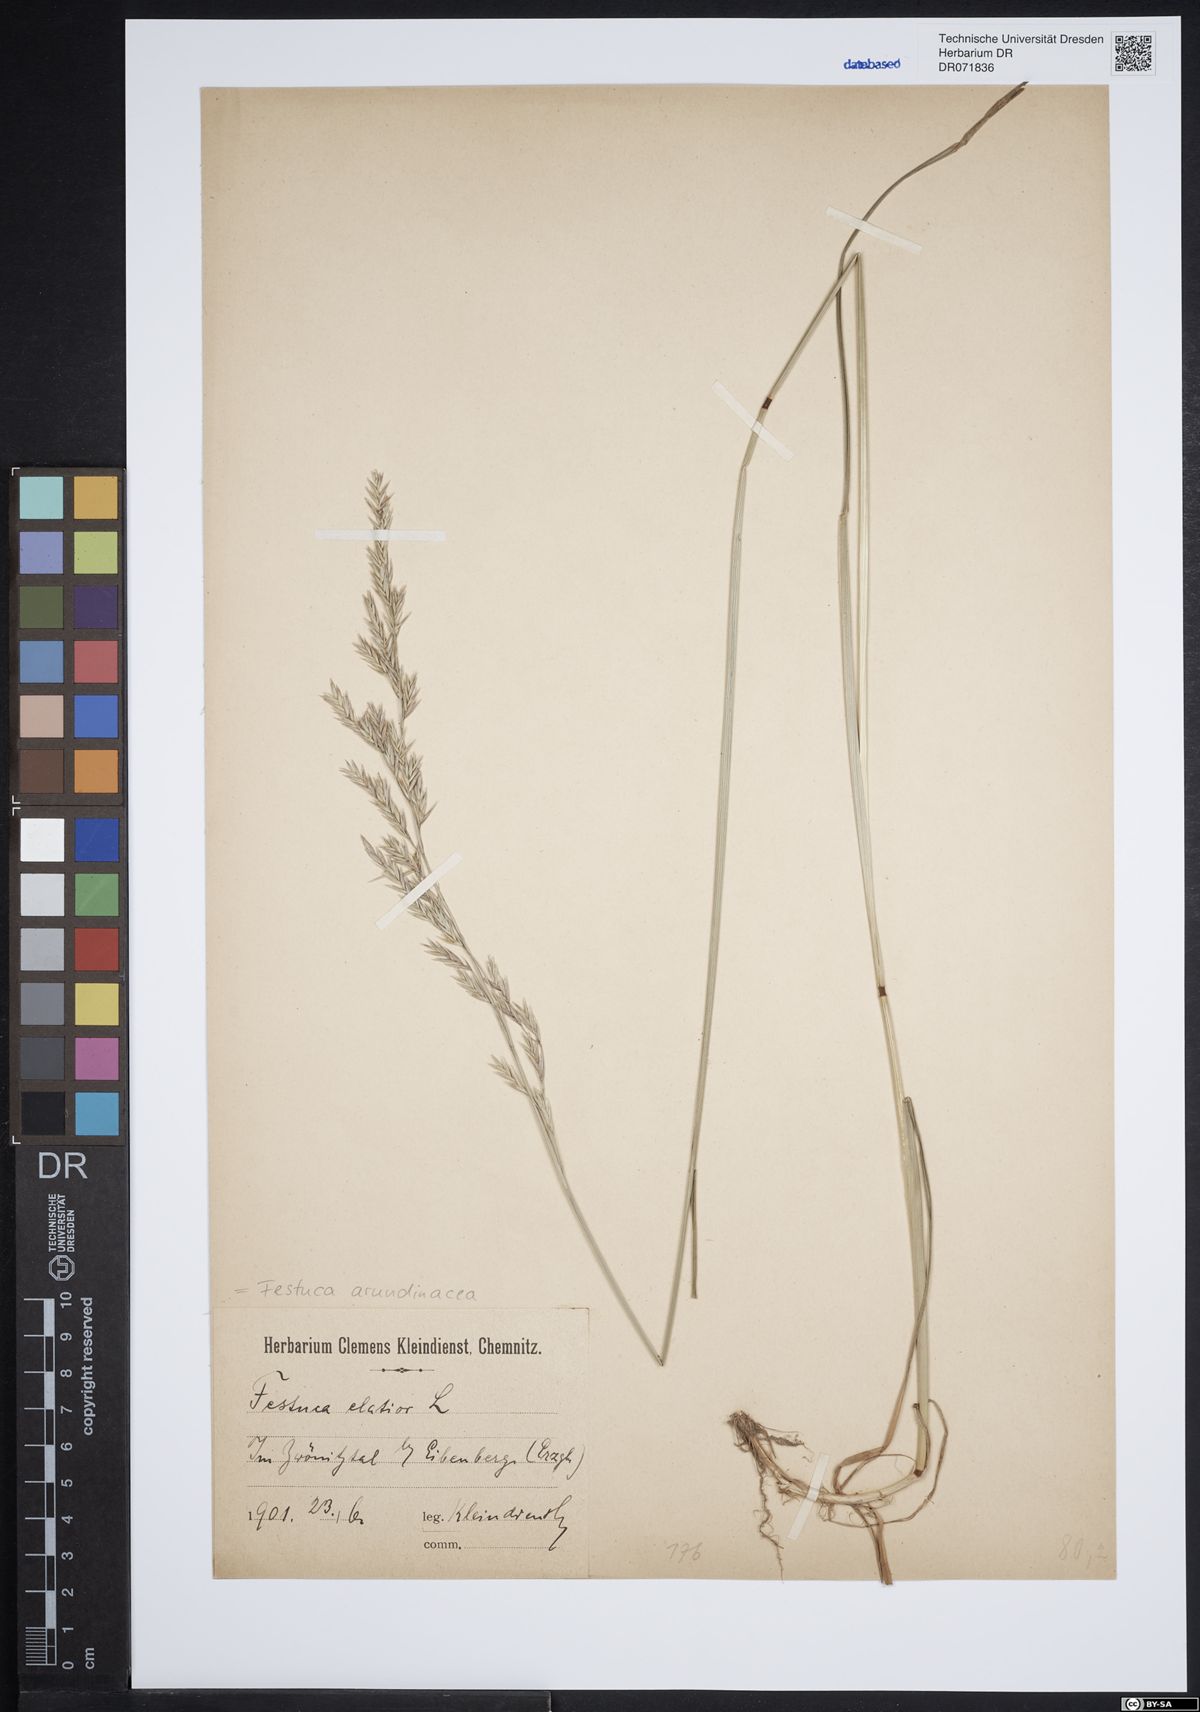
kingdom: Plantae
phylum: Tracheophyta
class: Liliopsida
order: Poales
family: Poaceae
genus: Lolium
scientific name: Lolium arundinaceum
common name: Reed fescue
